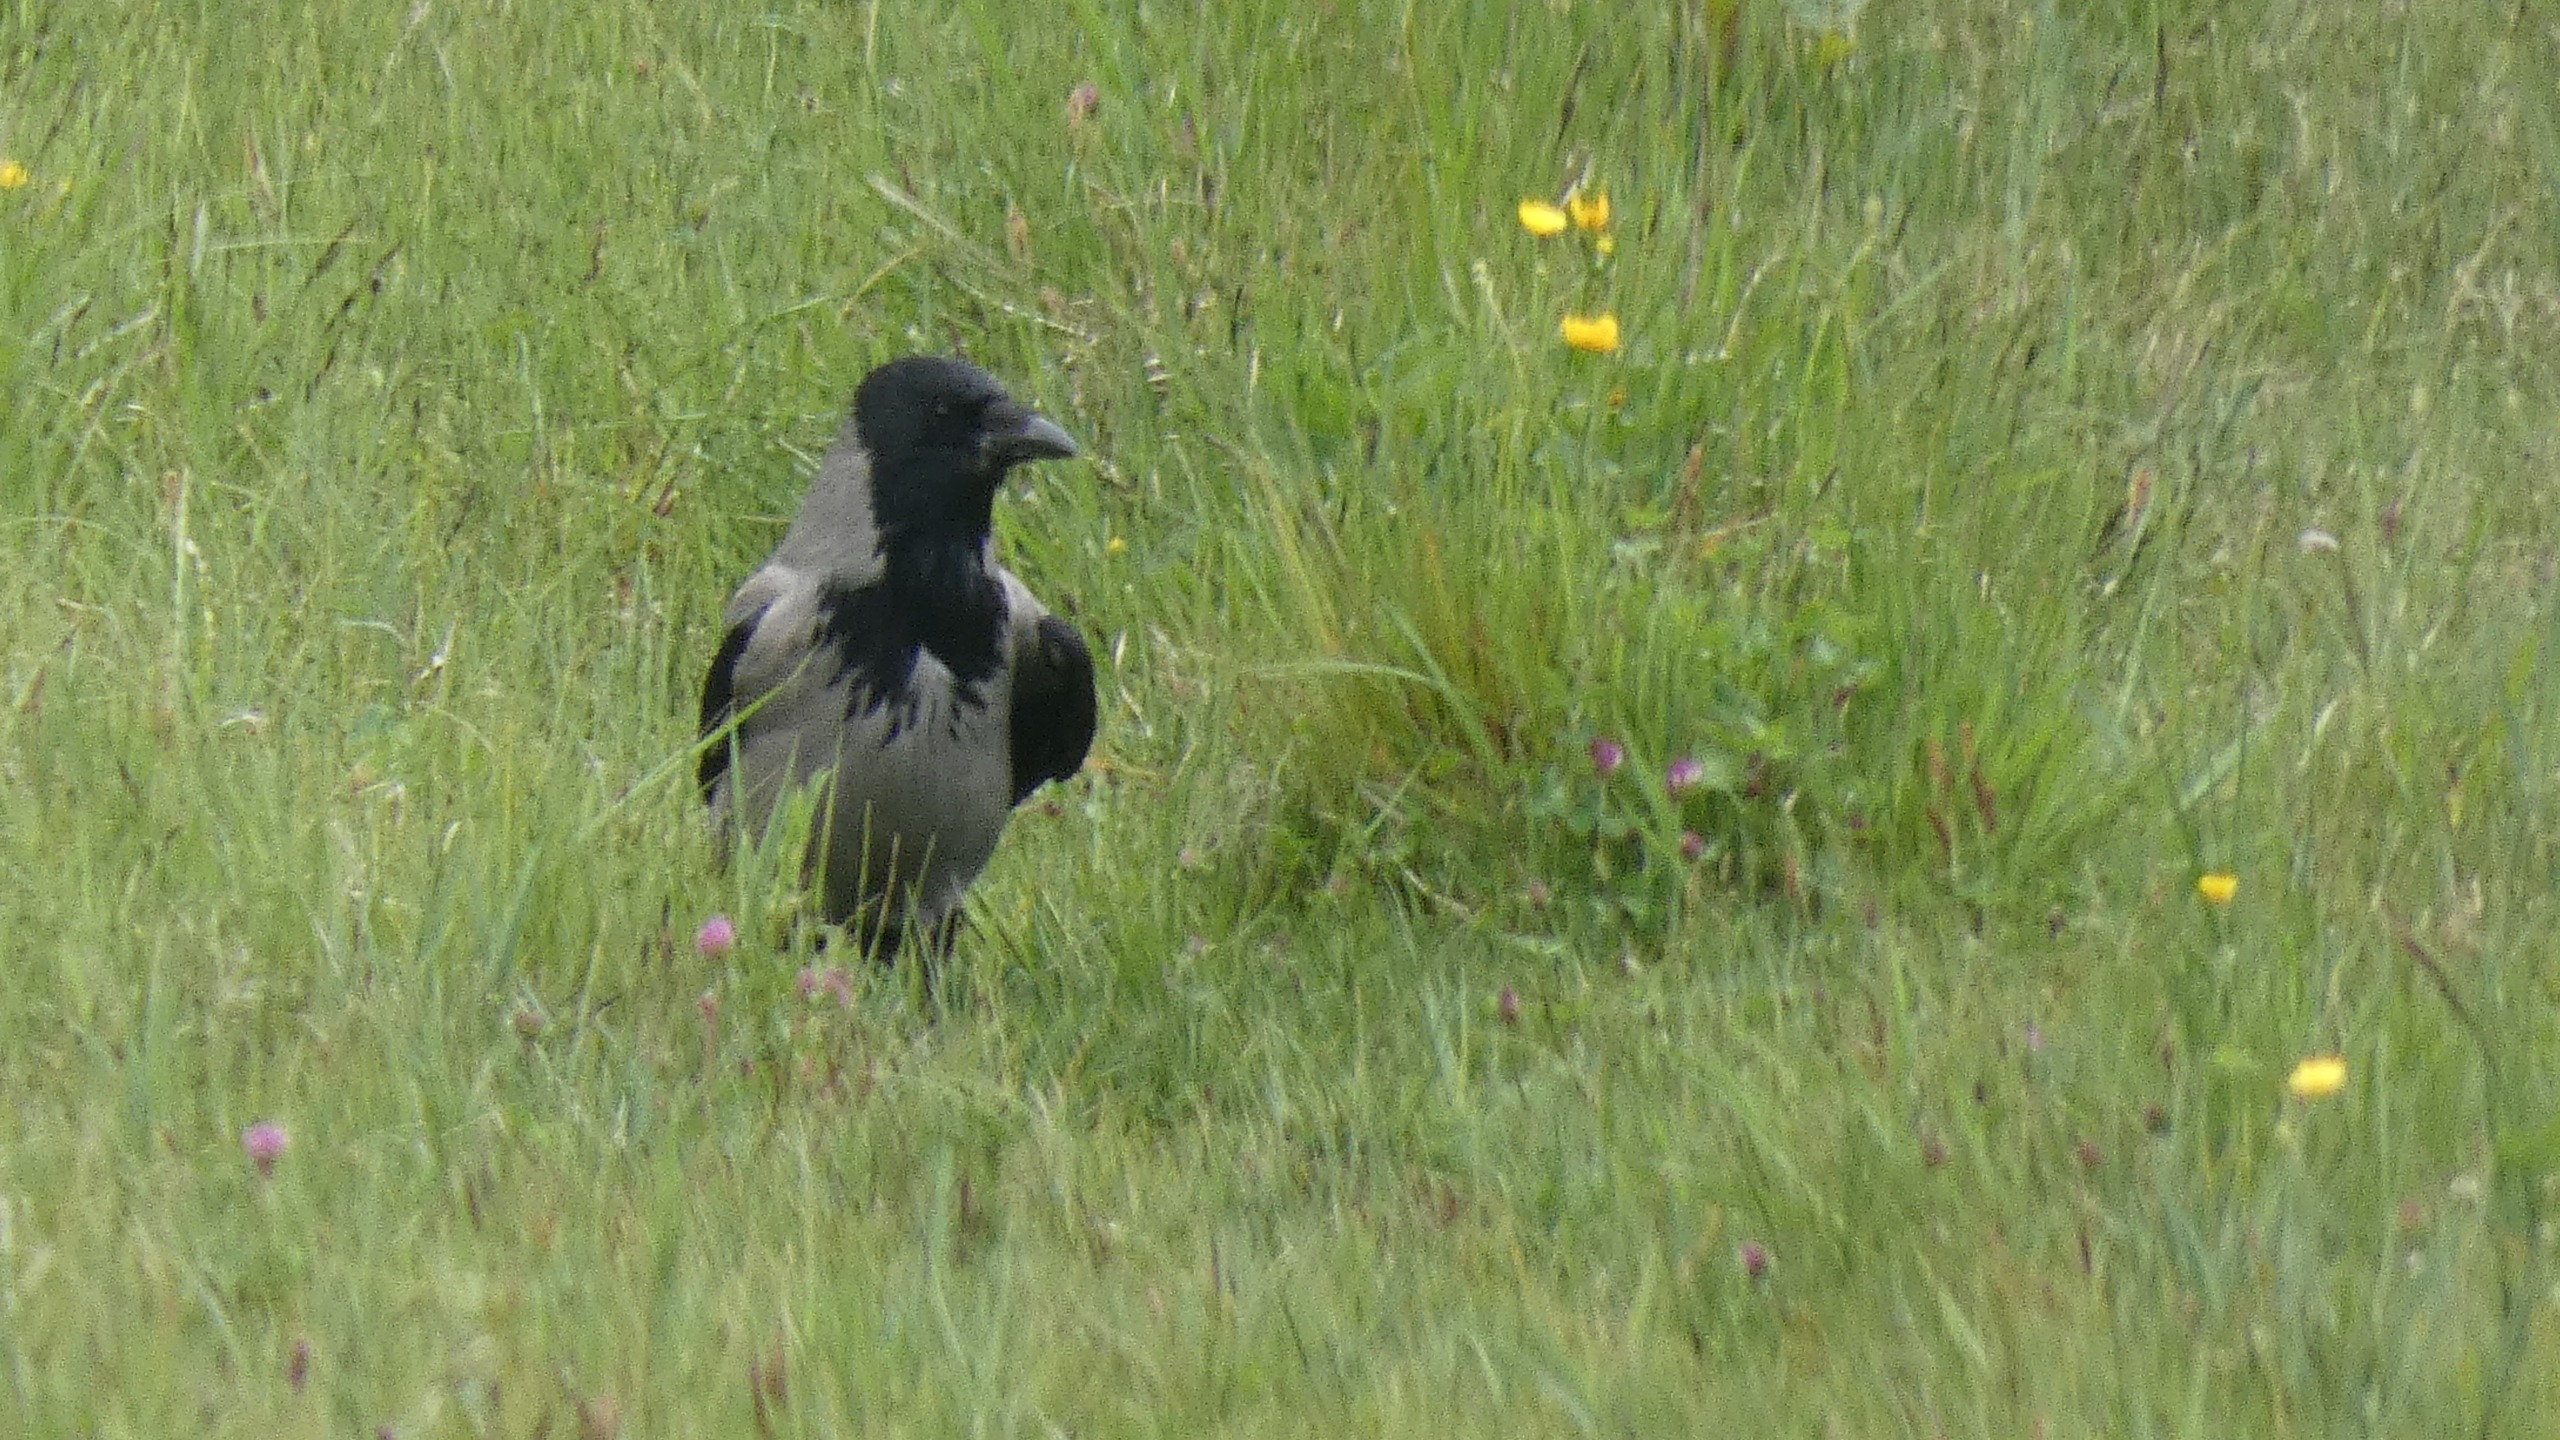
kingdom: Animalia
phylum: Chordata
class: Aves
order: Passeriformes
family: Corvidae
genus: Corvus
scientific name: Corvus cornix
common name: Gråkrage
